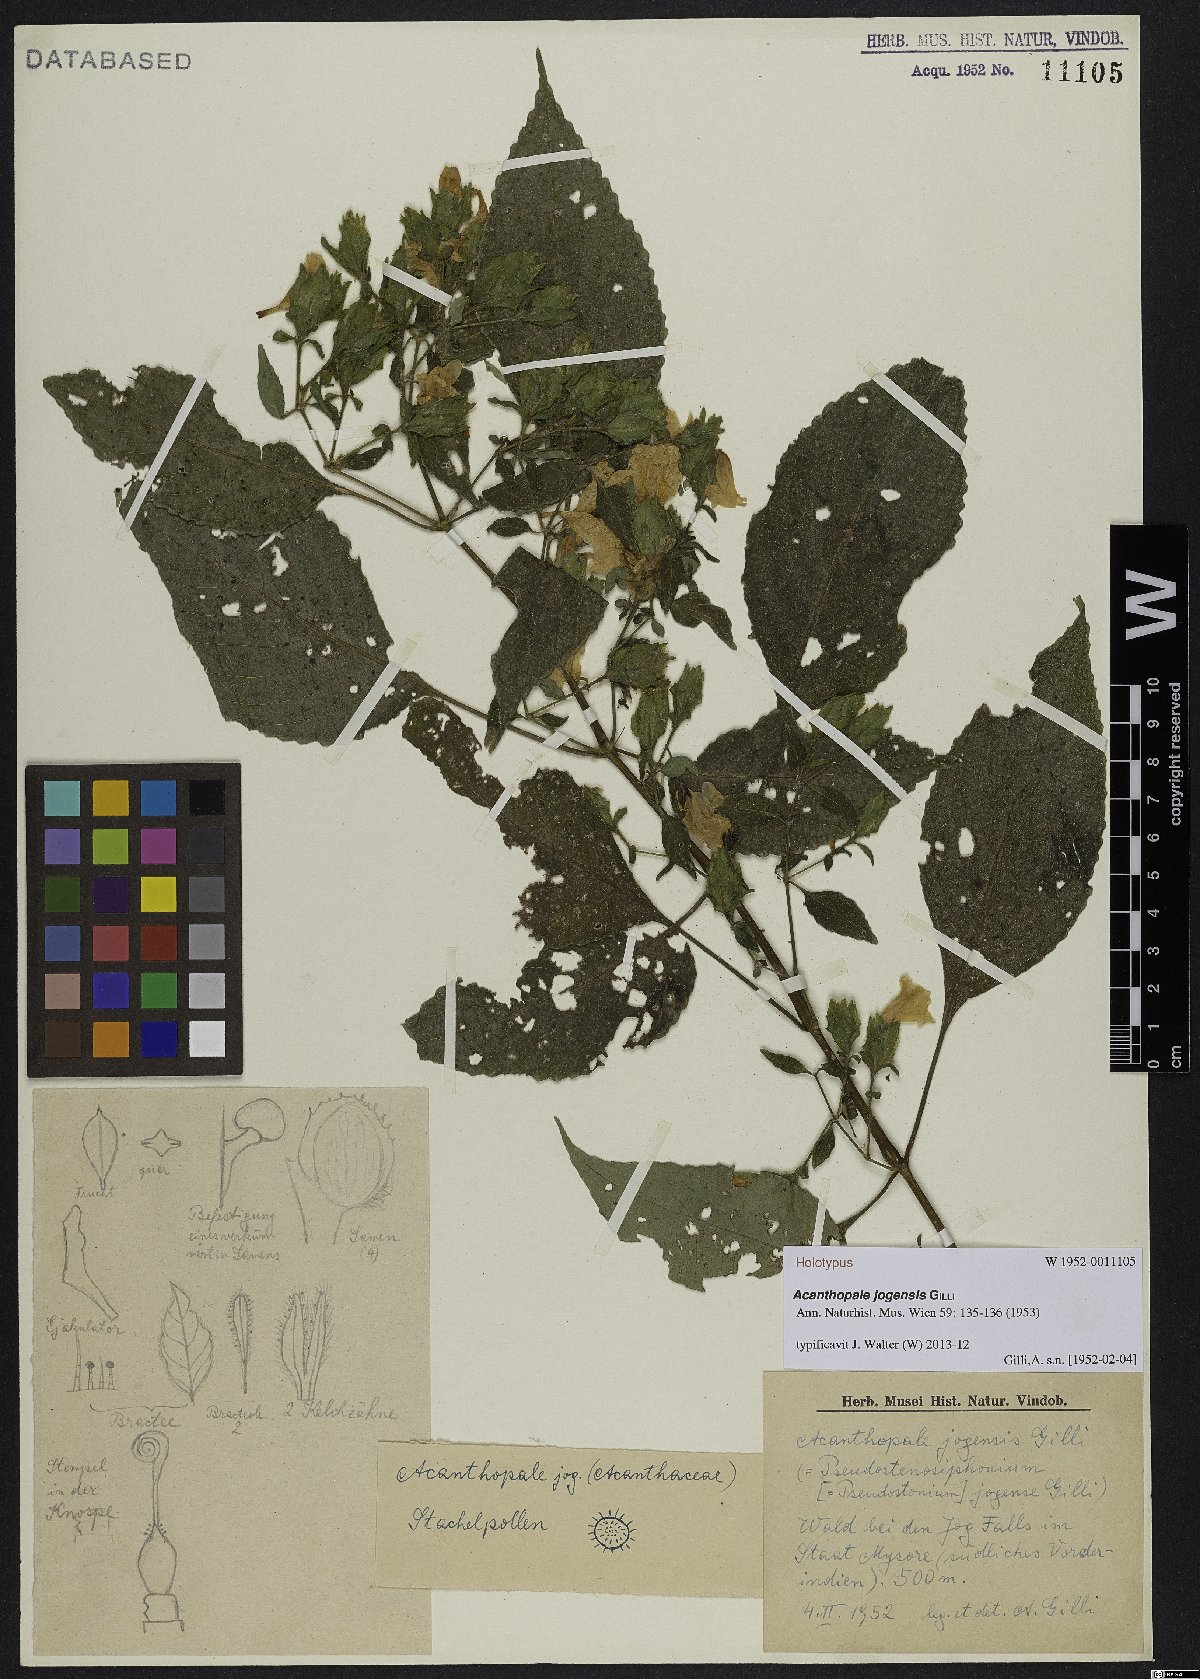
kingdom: Plantae
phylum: Tracheophyta
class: Magnoliopsida
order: Lamiales
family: Acanthaceae
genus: Strobilanthes
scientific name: Strobilanthes jogensis
